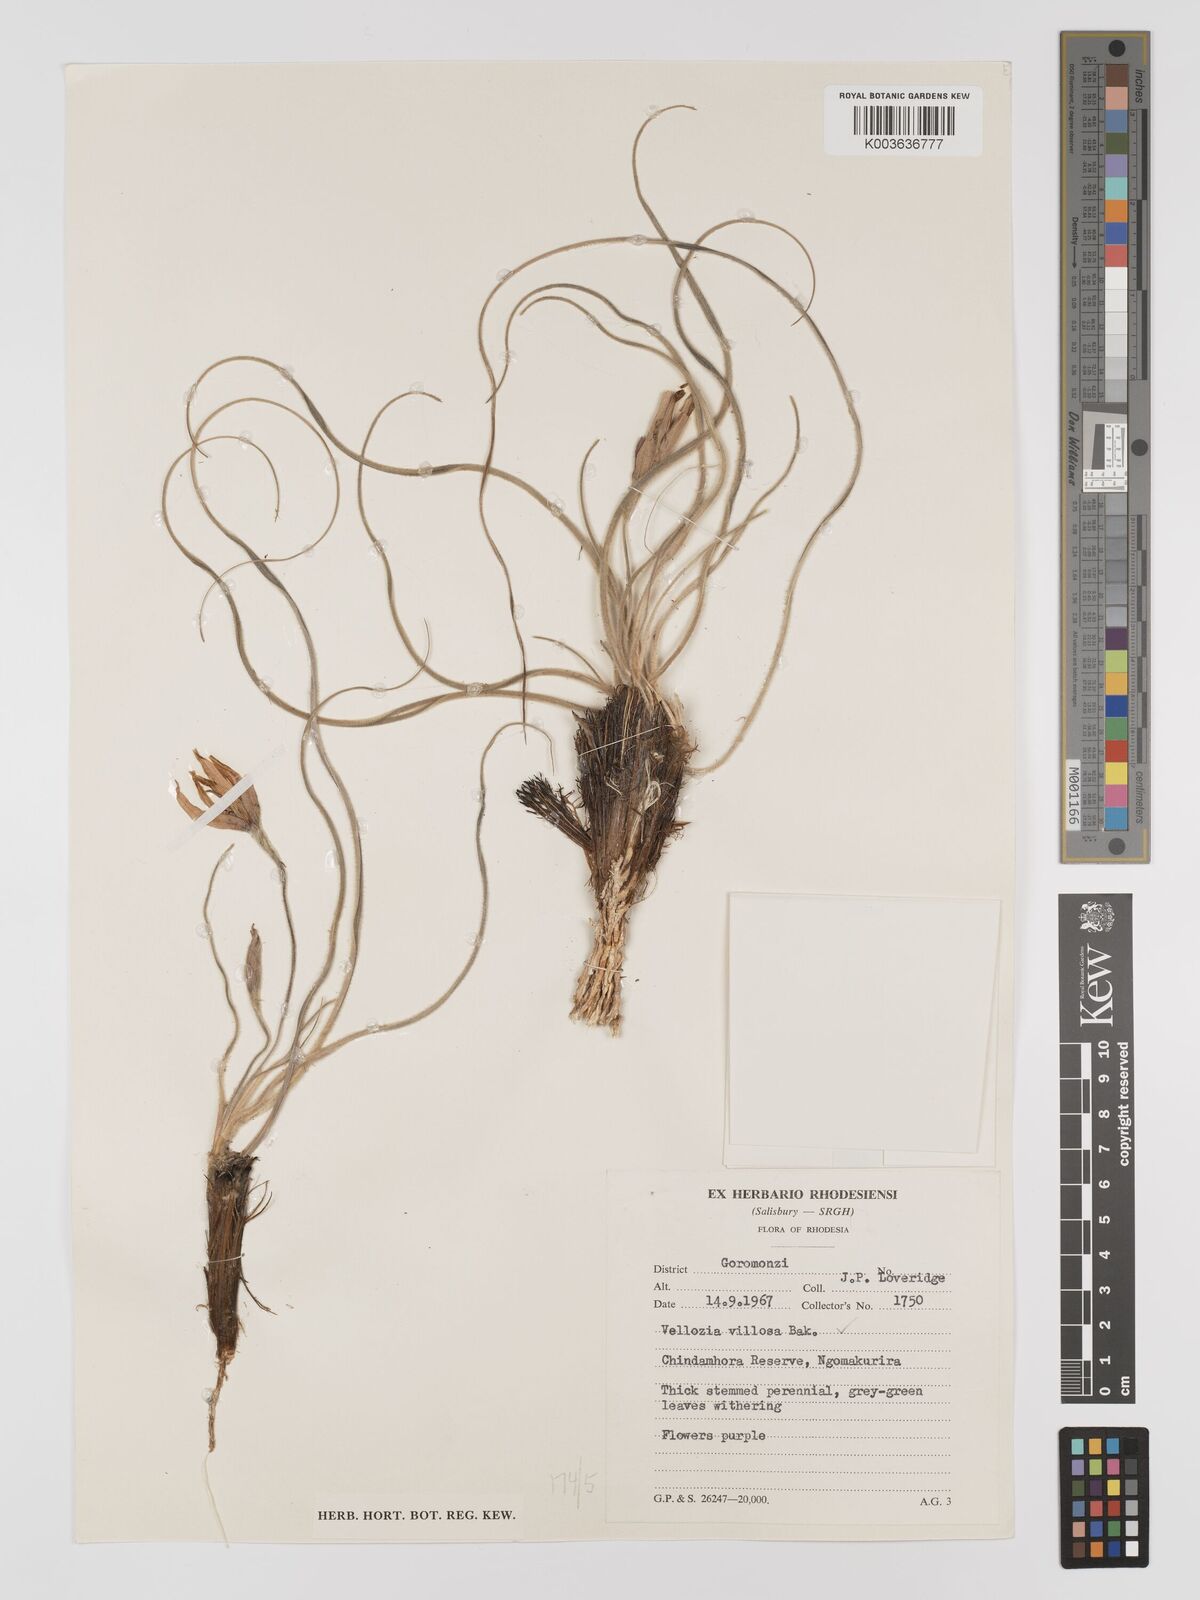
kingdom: Plantae
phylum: Tracheophyta
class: Liliopsida
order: Pandanales
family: Velloziaceae
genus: Xerophyta
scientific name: Xerophyta villosa
